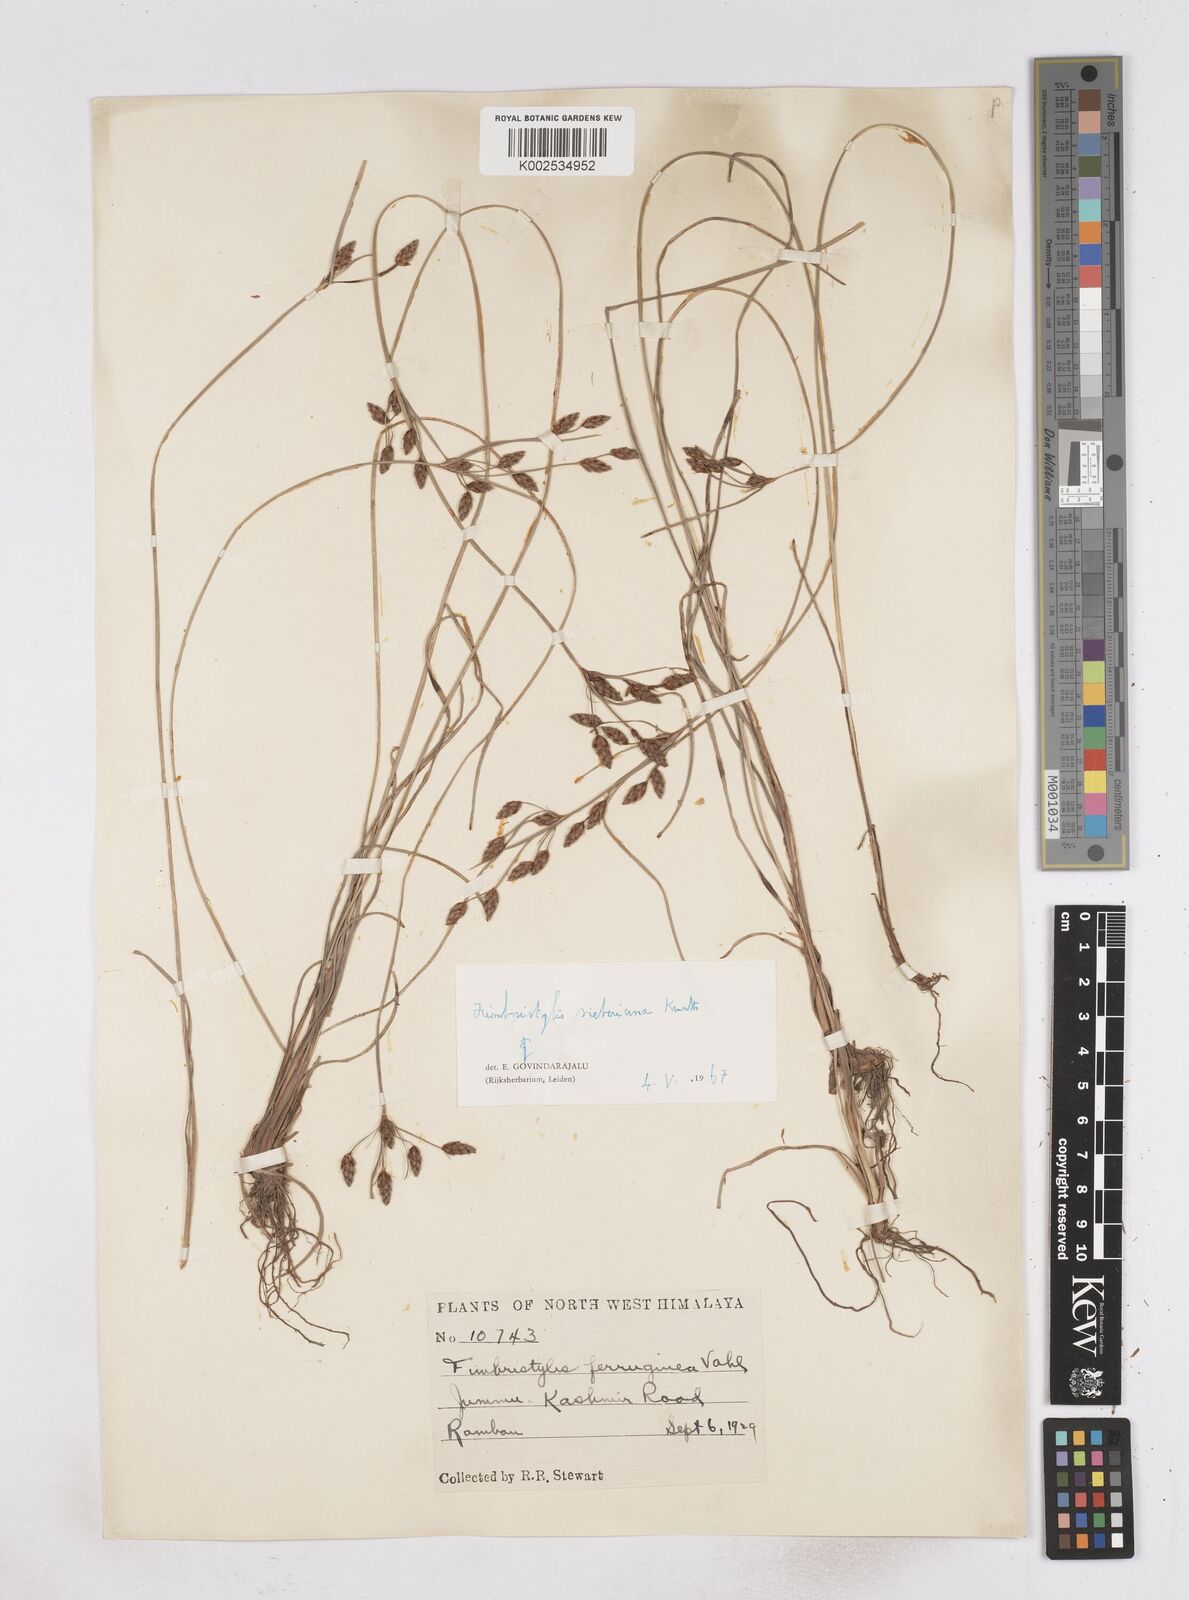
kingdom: Plantae
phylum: Tracheophyta
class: Liliopsida
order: Poales
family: Cyperaceae
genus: Fimbristylis
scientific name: Fimbristylis ferruginea
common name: West indian fimbry
